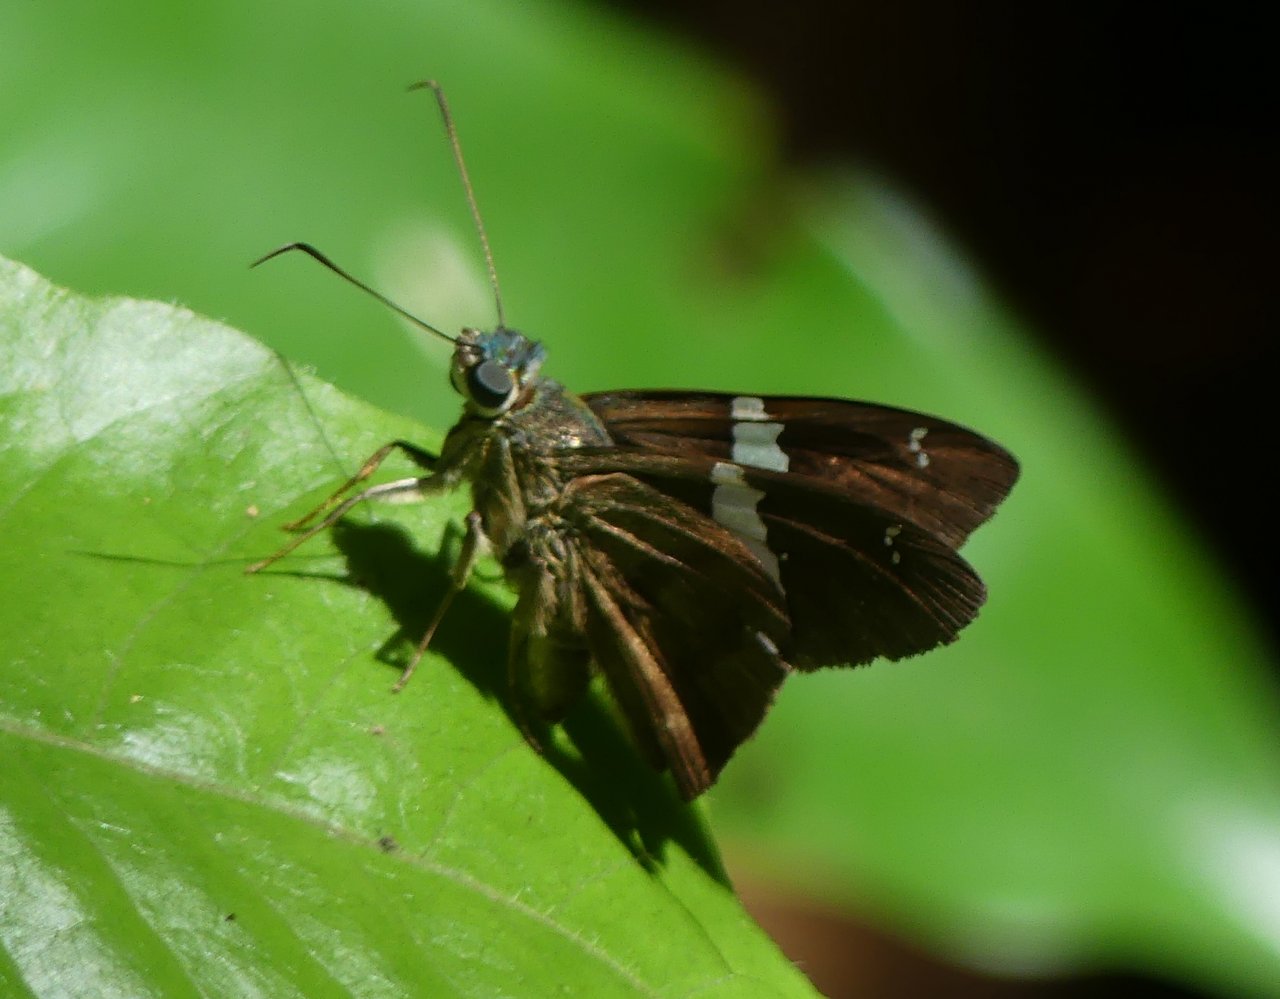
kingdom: Animalia
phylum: Arthropoda
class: Insecta
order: Lepidoptera
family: Hesperiidae
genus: Spathilepia
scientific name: Spathilepia clonius
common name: Falcate Skipper
